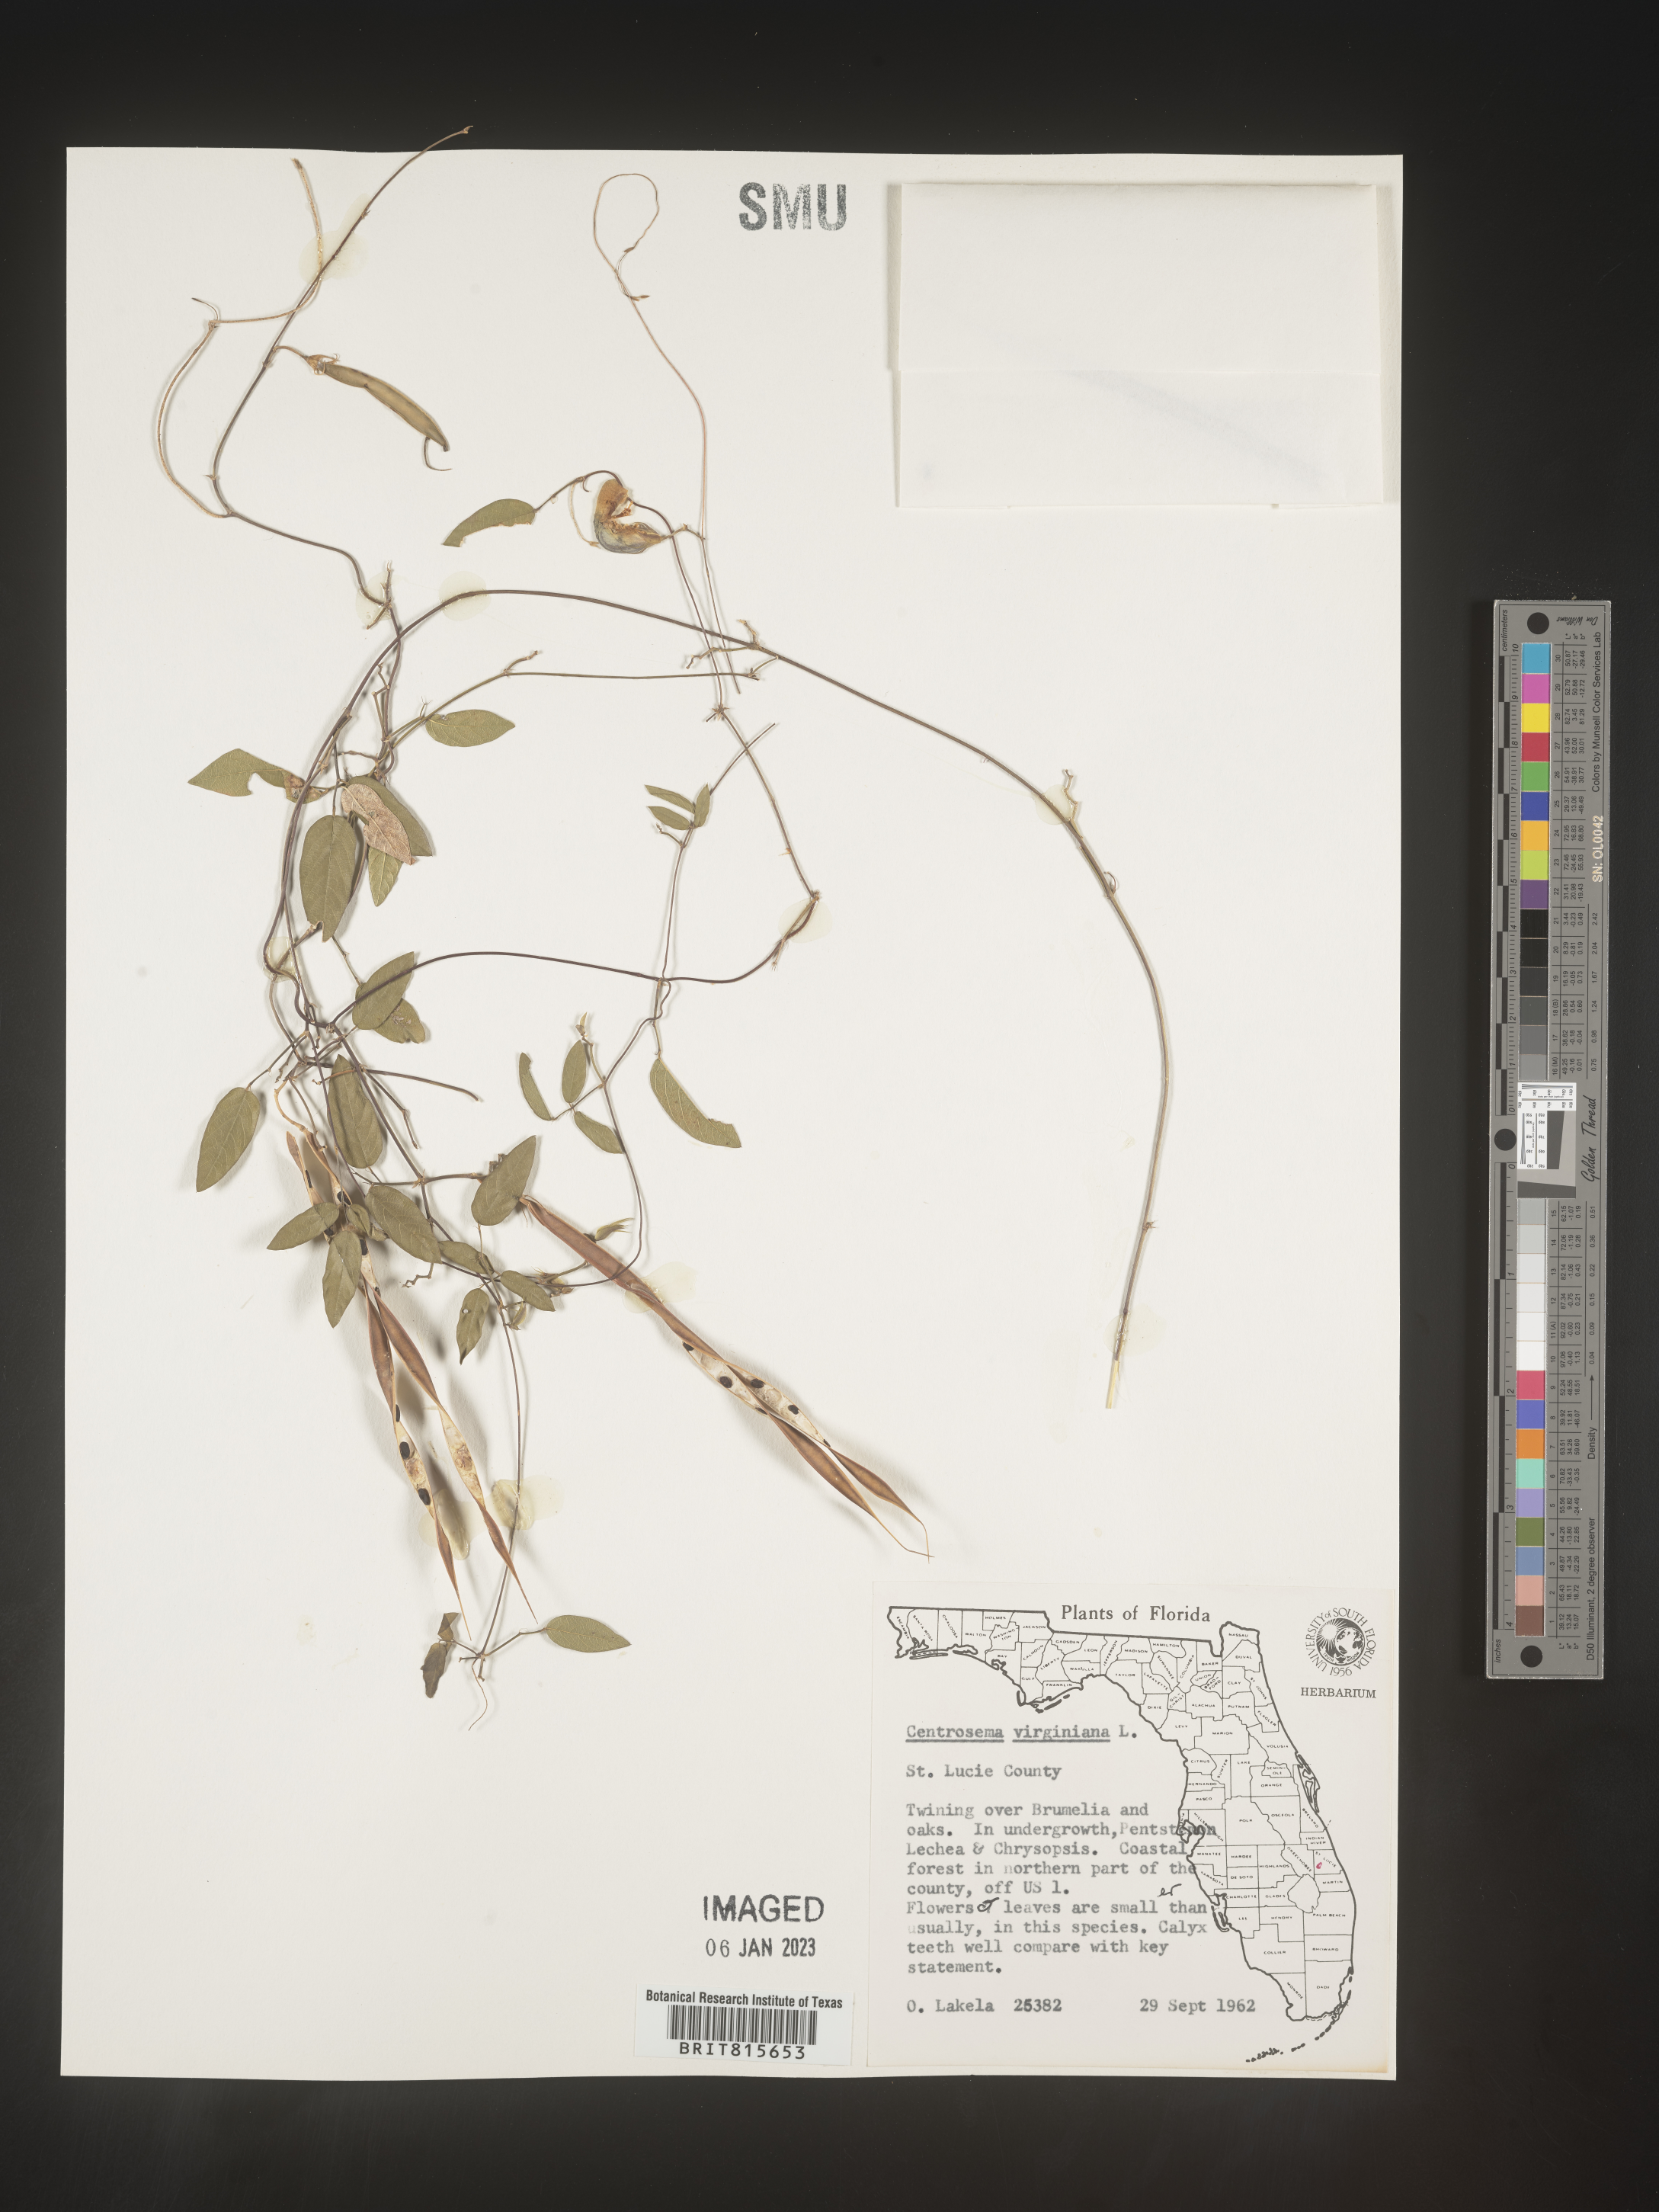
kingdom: Plantae
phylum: Tracheophyta
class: Magnoliopsida
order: Fabales
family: Fabaceae
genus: Centrosema
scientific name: Centrosema virginianum
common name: Butterfly-pea
